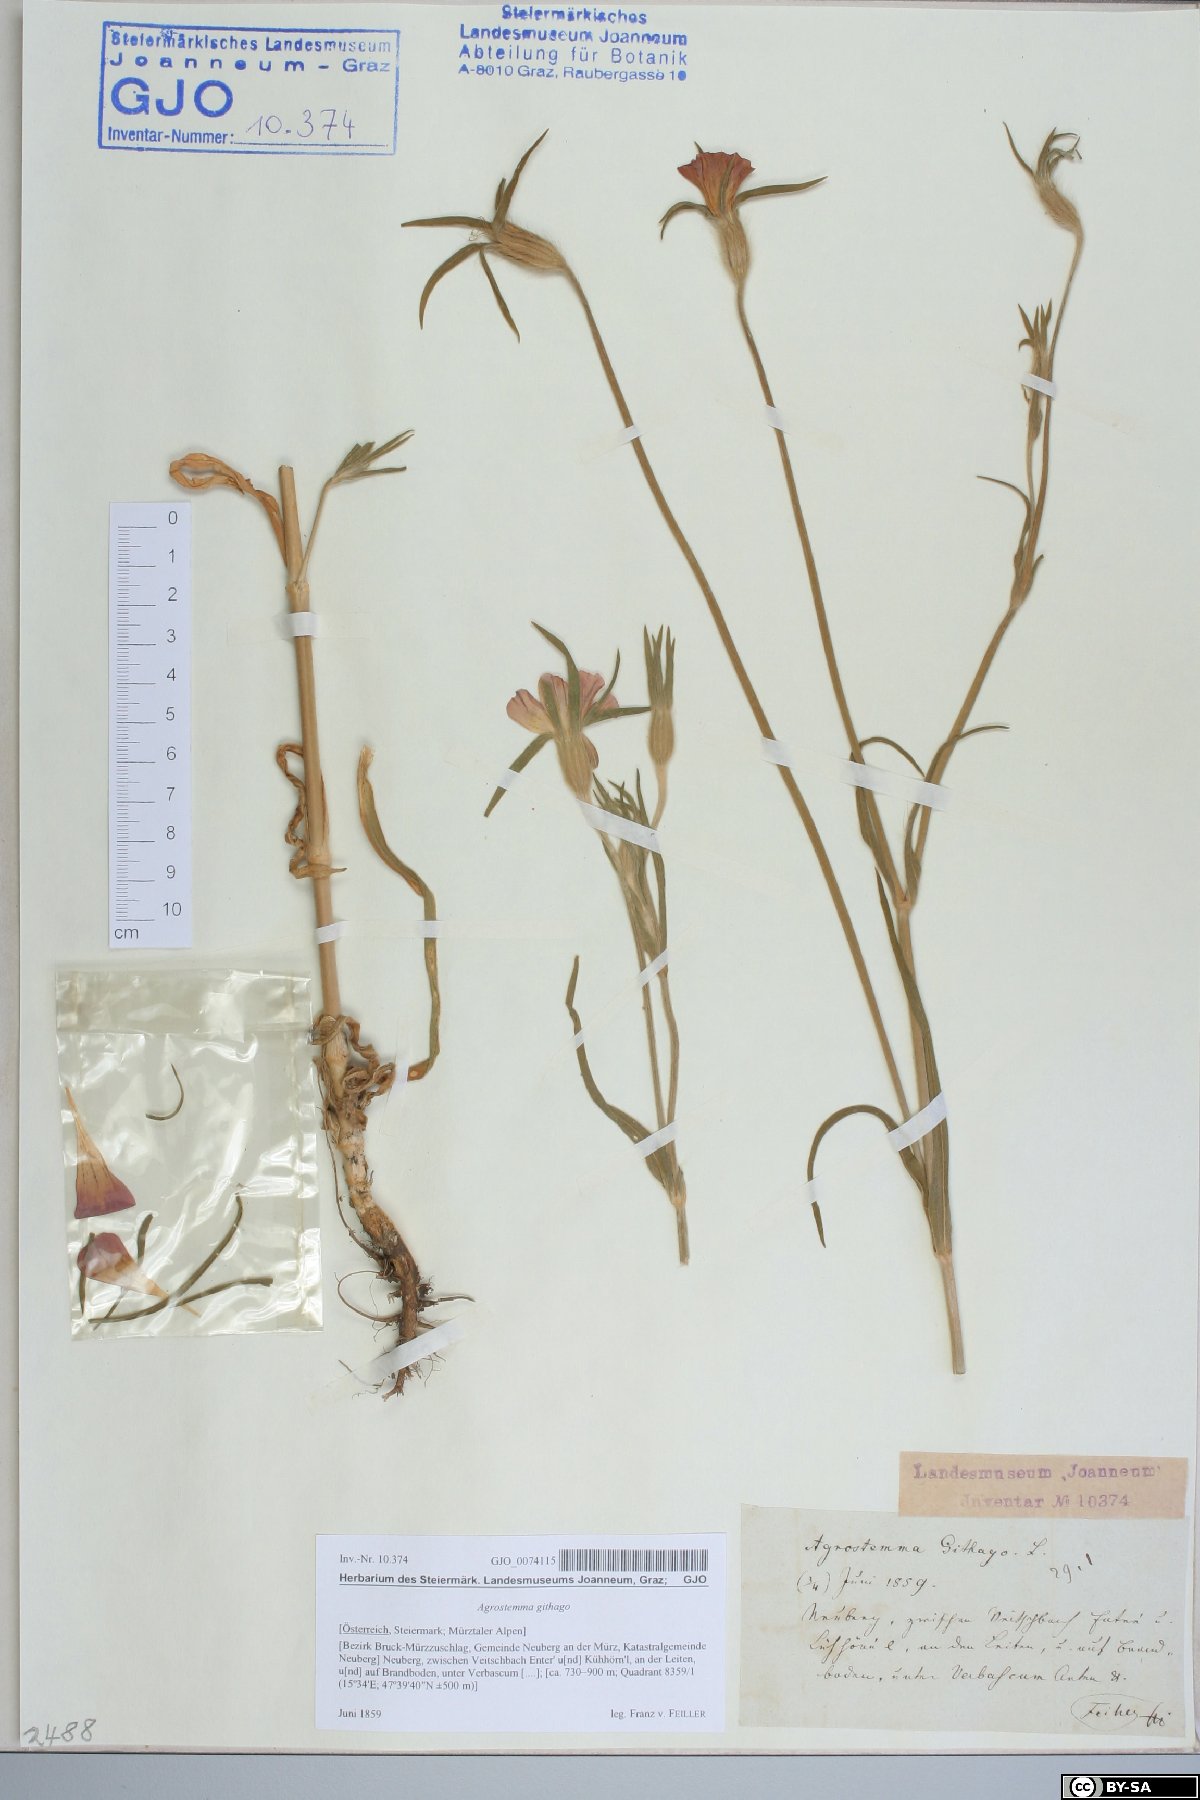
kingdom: Plantae
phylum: Tracheophyta
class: Magnoliopsida
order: Caryophyllales
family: Caryophyllaceae
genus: Agrostemma
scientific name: Agrostemma githago
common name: Common corncockle
